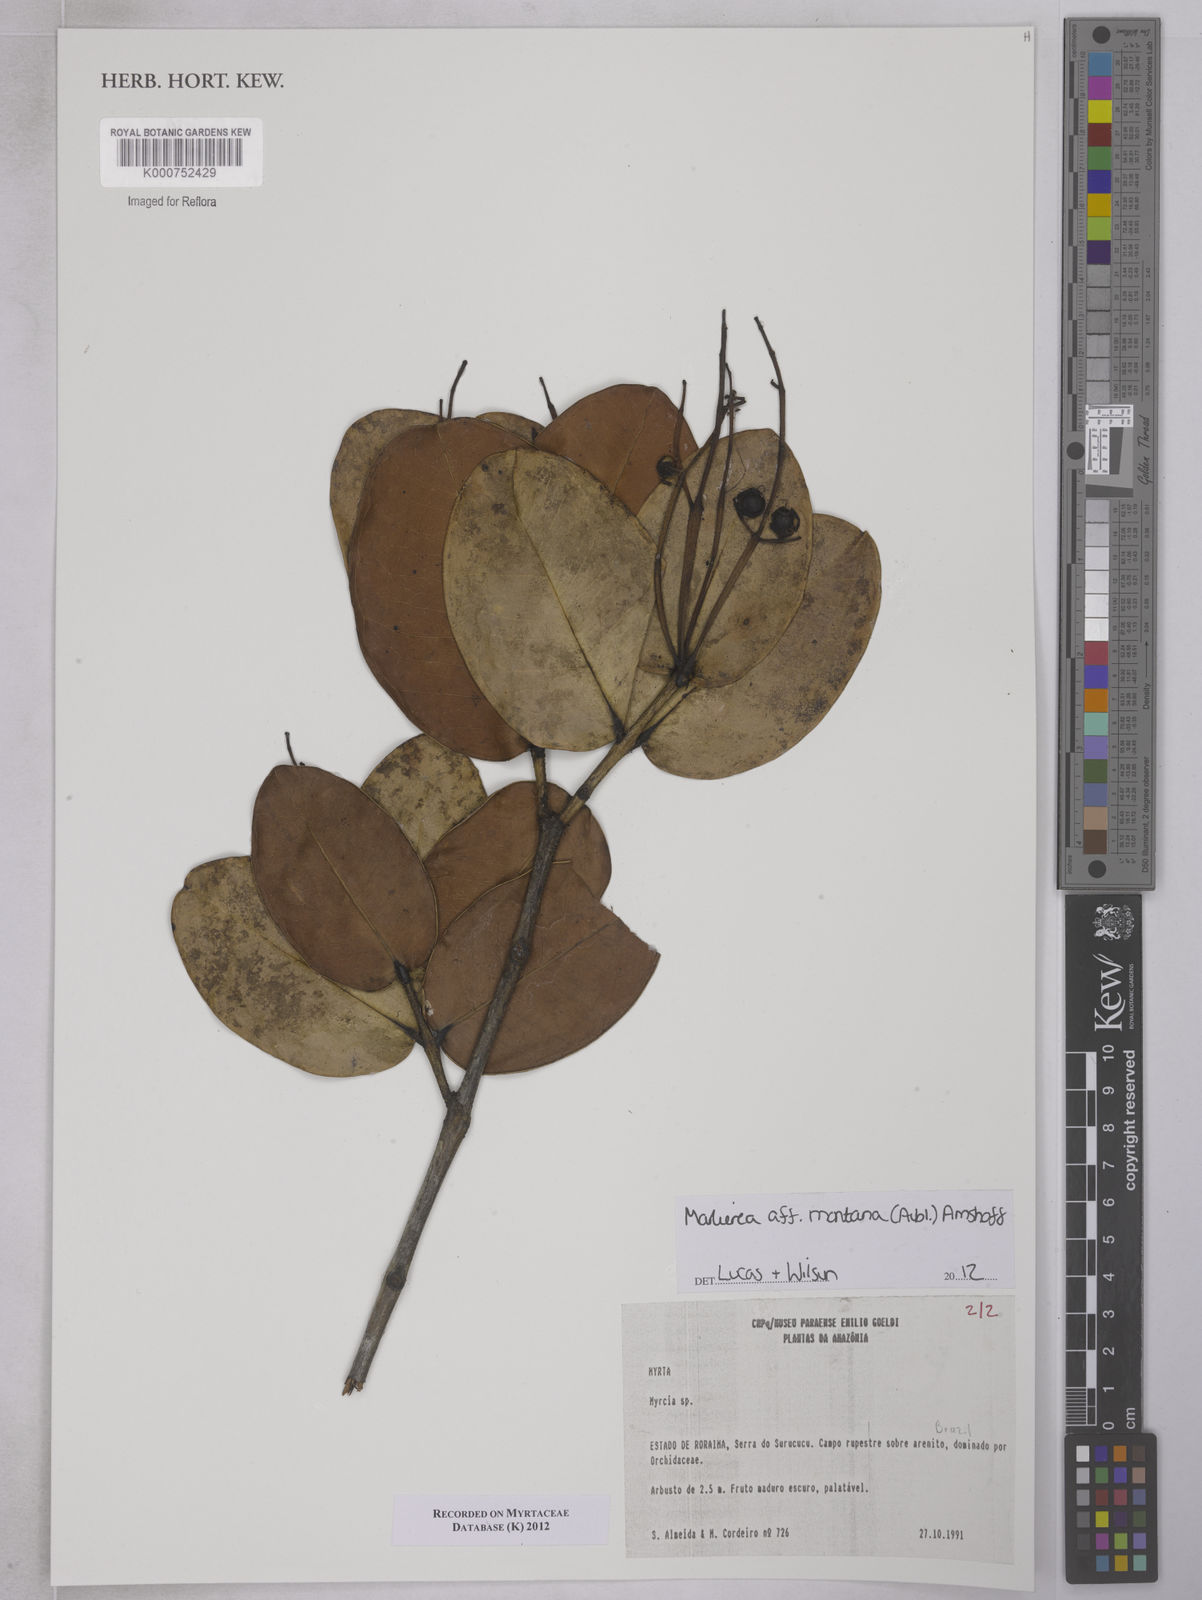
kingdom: Plantae
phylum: Tracheophyta
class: Magnoliopsida
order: Myrtales
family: Myrtaceae
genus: Myrcia
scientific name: Myrcia neomontana
